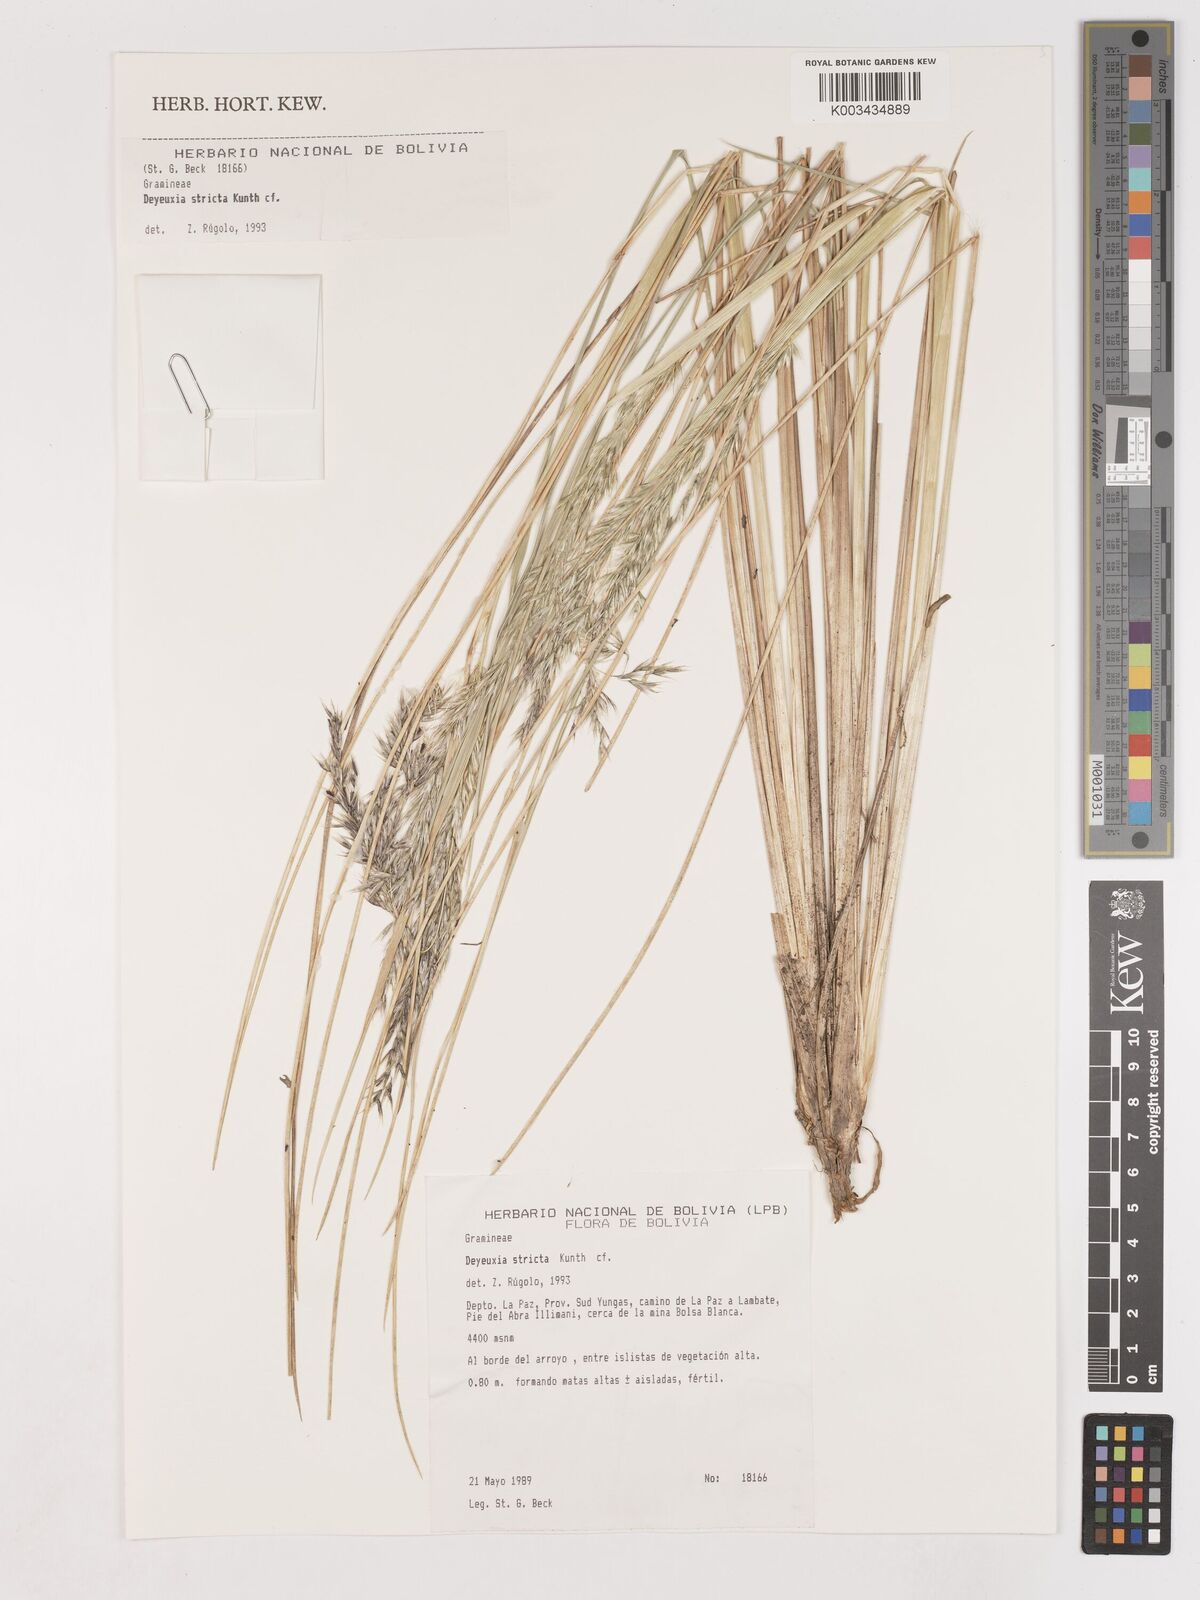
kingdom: Plantae
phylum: Tracheophyta
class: Liliopsida
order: Poales
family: Poaceae
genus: Cinnagrostis
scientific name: Cinnagrostis recta
